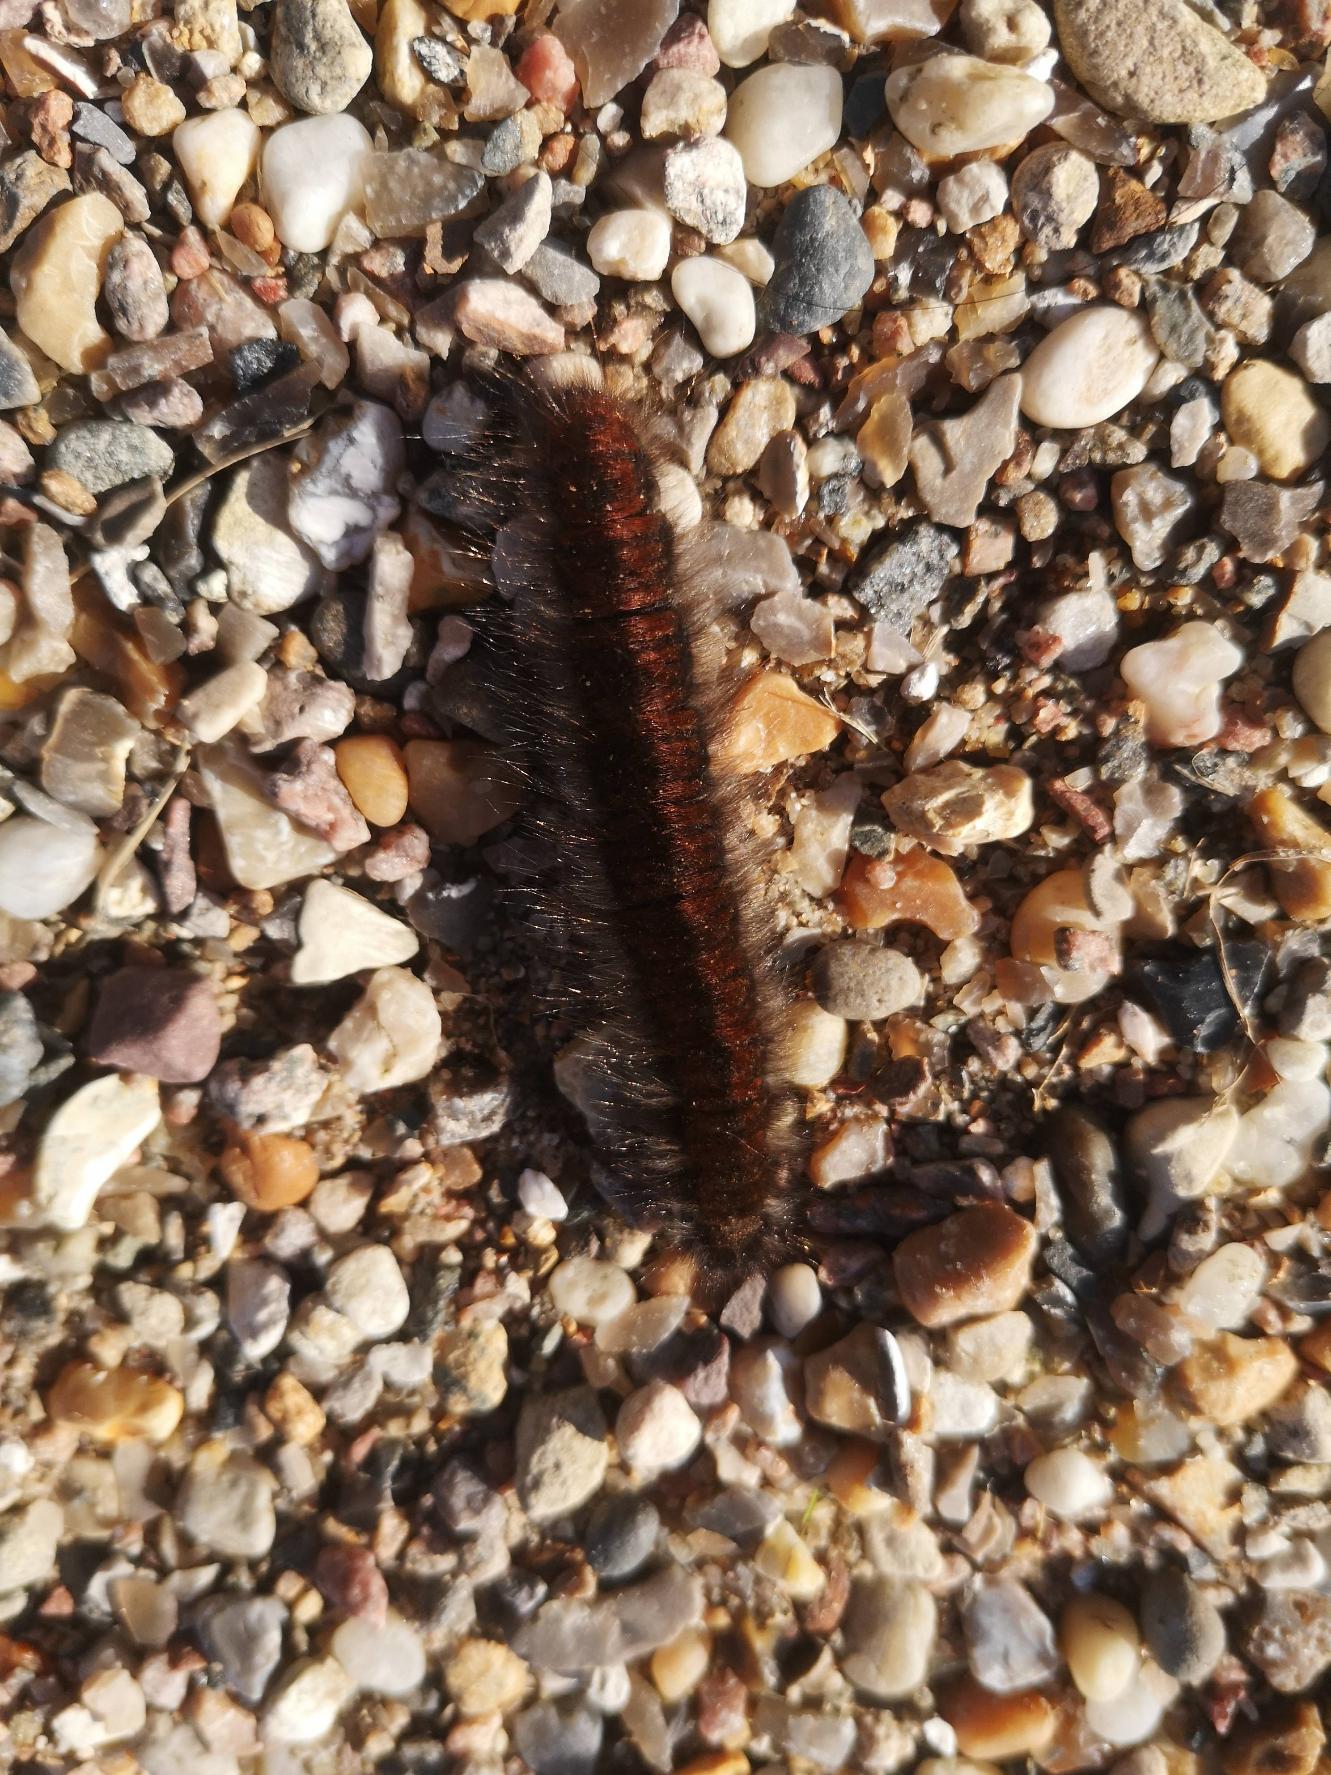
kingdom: Animalia
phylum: Arthropoda
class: Insecta
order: Lepidoptera
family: Lasiocampidae
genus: Macrothylacia
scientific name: Macrothylacia rubi
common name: Brombærspinder
